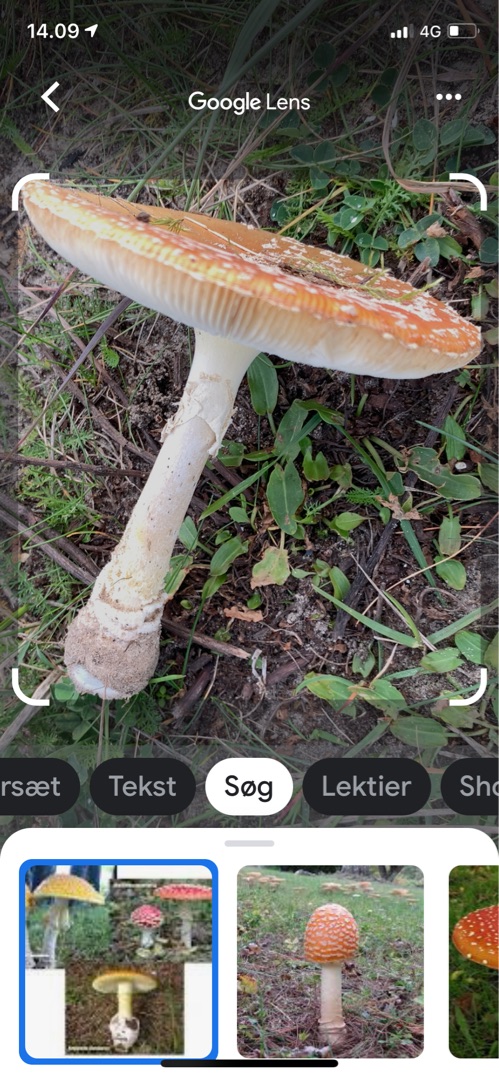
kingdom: Fungi
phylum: Basidiomycota
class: Agaricomycetes
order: Agaricales
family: Amanitaceae
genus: Amanita
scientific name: Amanita muscaria
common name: Rød fluesvamp
